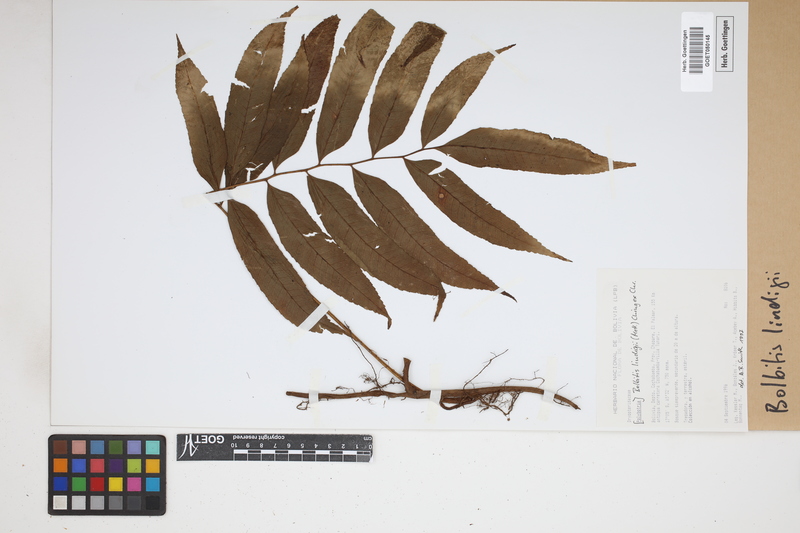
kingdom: Plantae
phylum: Tracheophyta
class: Polypodiopsida
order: Polypodiales
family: Dryopteridaceae
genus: Mickelia
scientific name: Mickelia lindigii
